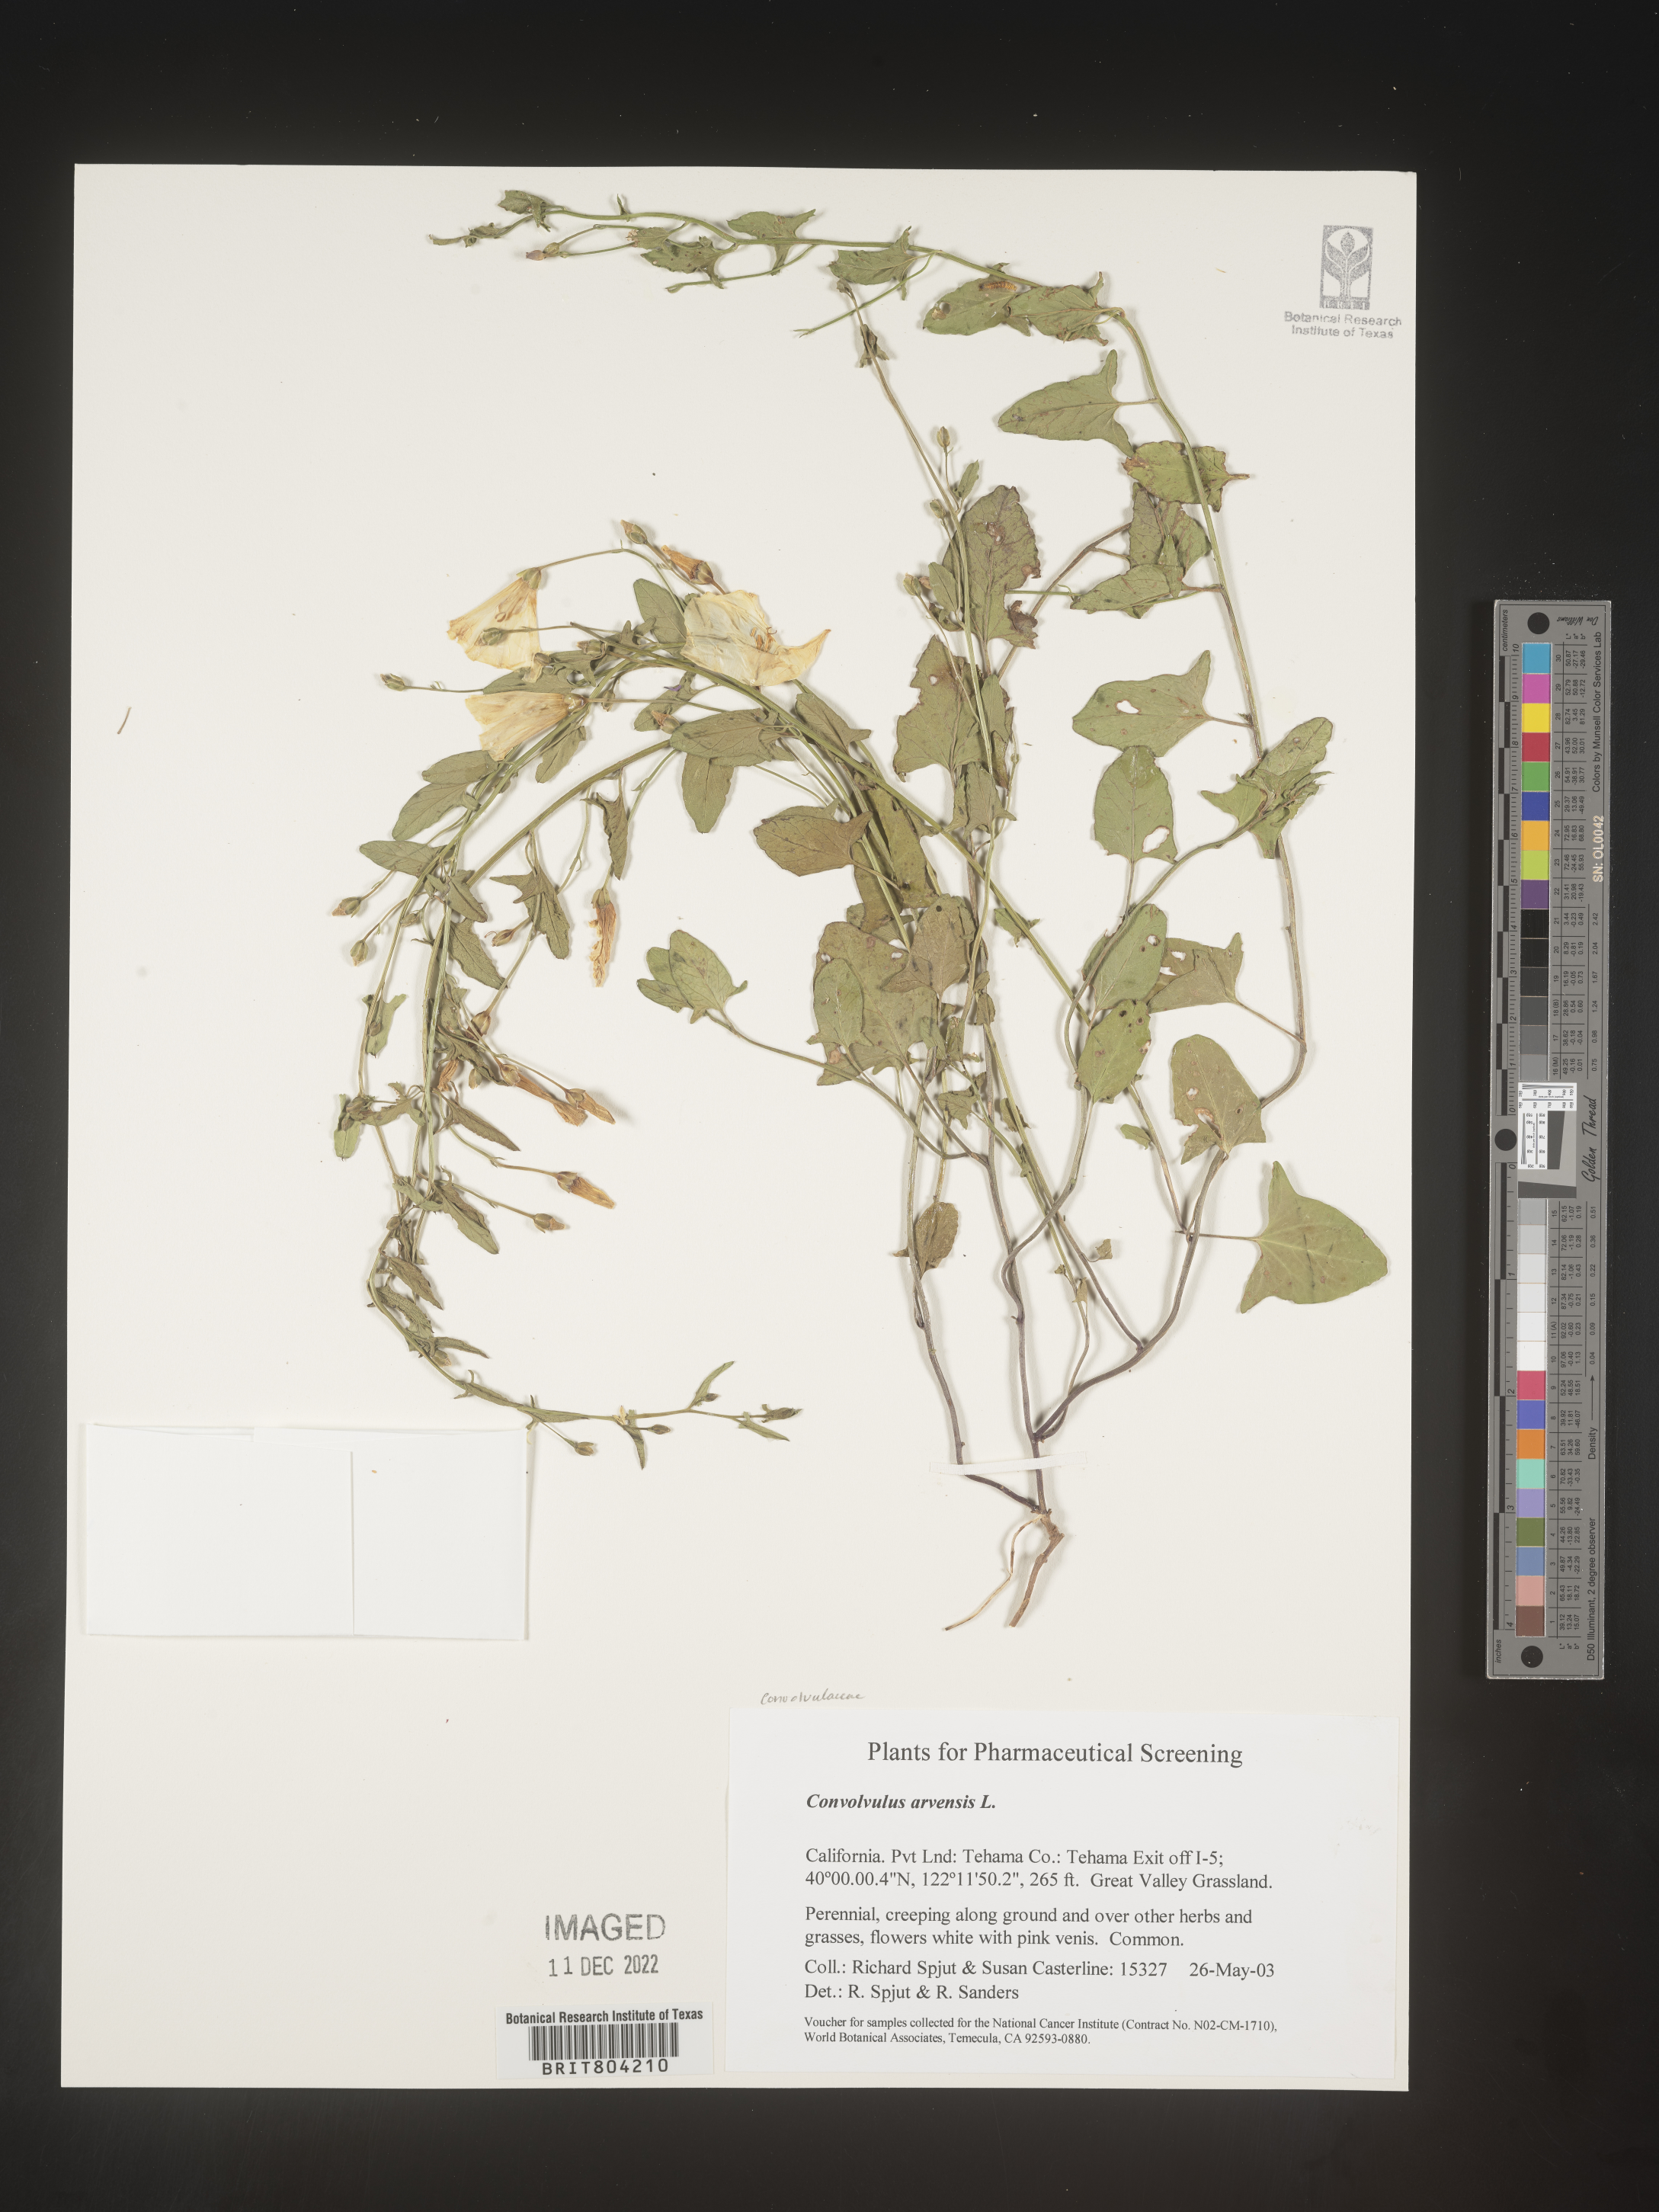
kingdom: Plantae
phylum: Tracheophyta
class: Magnoliopsida
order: Solanales
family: Convolvulaceae
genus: Convolvulus
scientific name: Convolvulus arvensis
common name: Field bindweed
